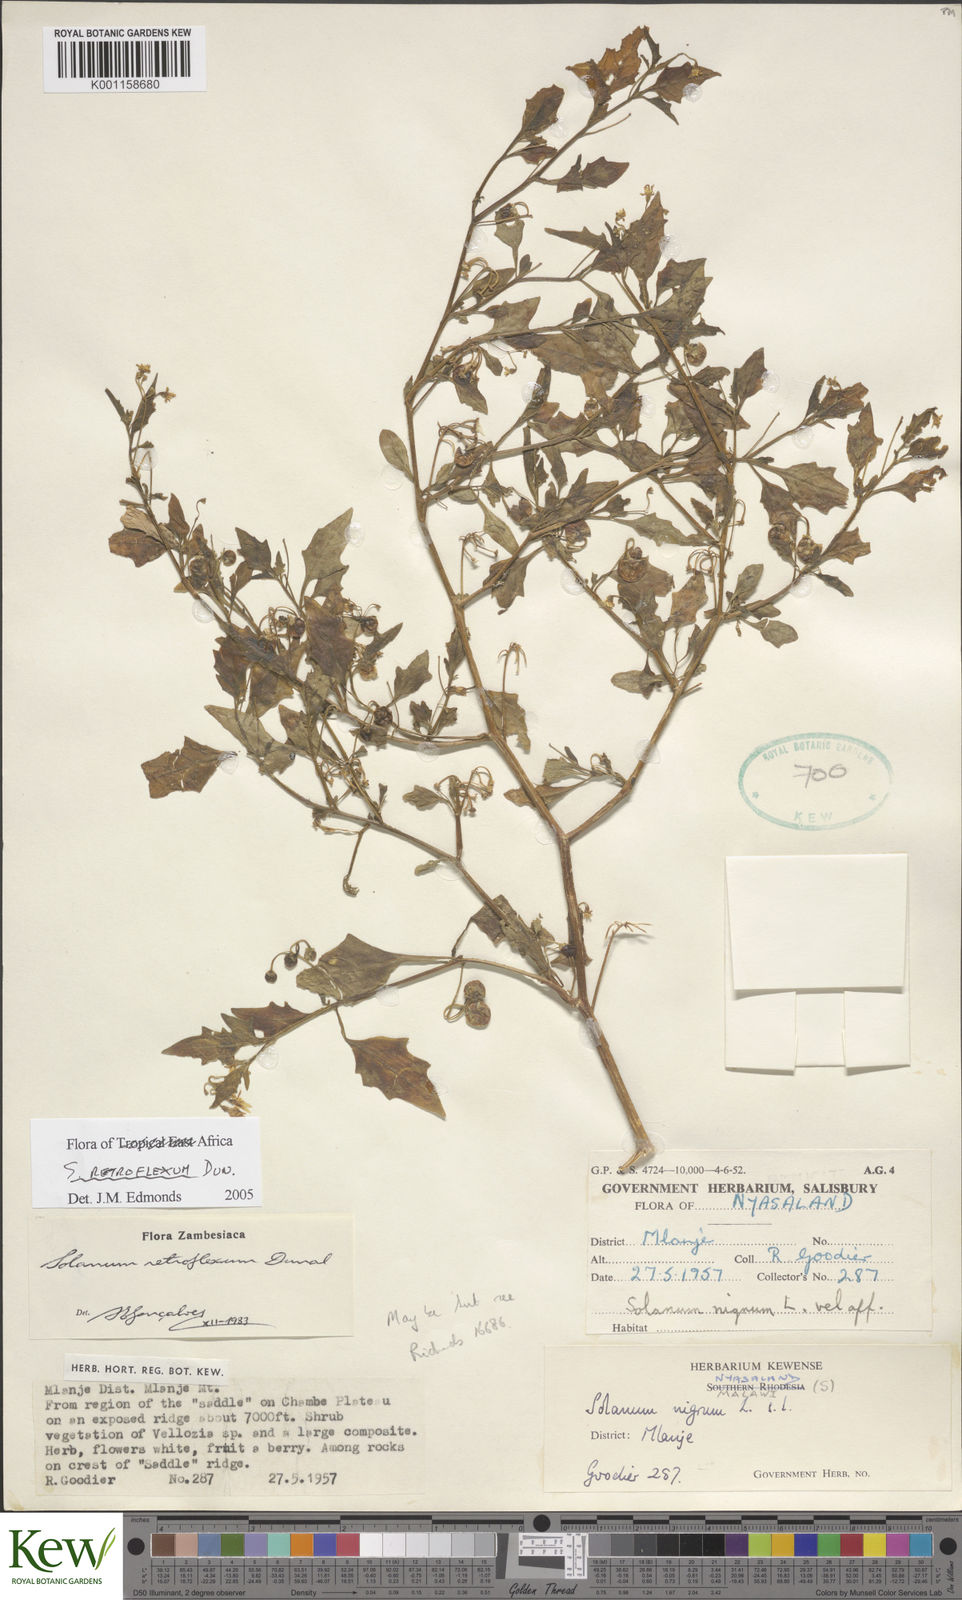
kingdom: Plantae
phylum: Tracheophyta
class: Magnoliopsida
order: Solanales
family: Solanaceae
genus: Solanum
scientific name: Solanum retroflexum
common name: Wonderberry
